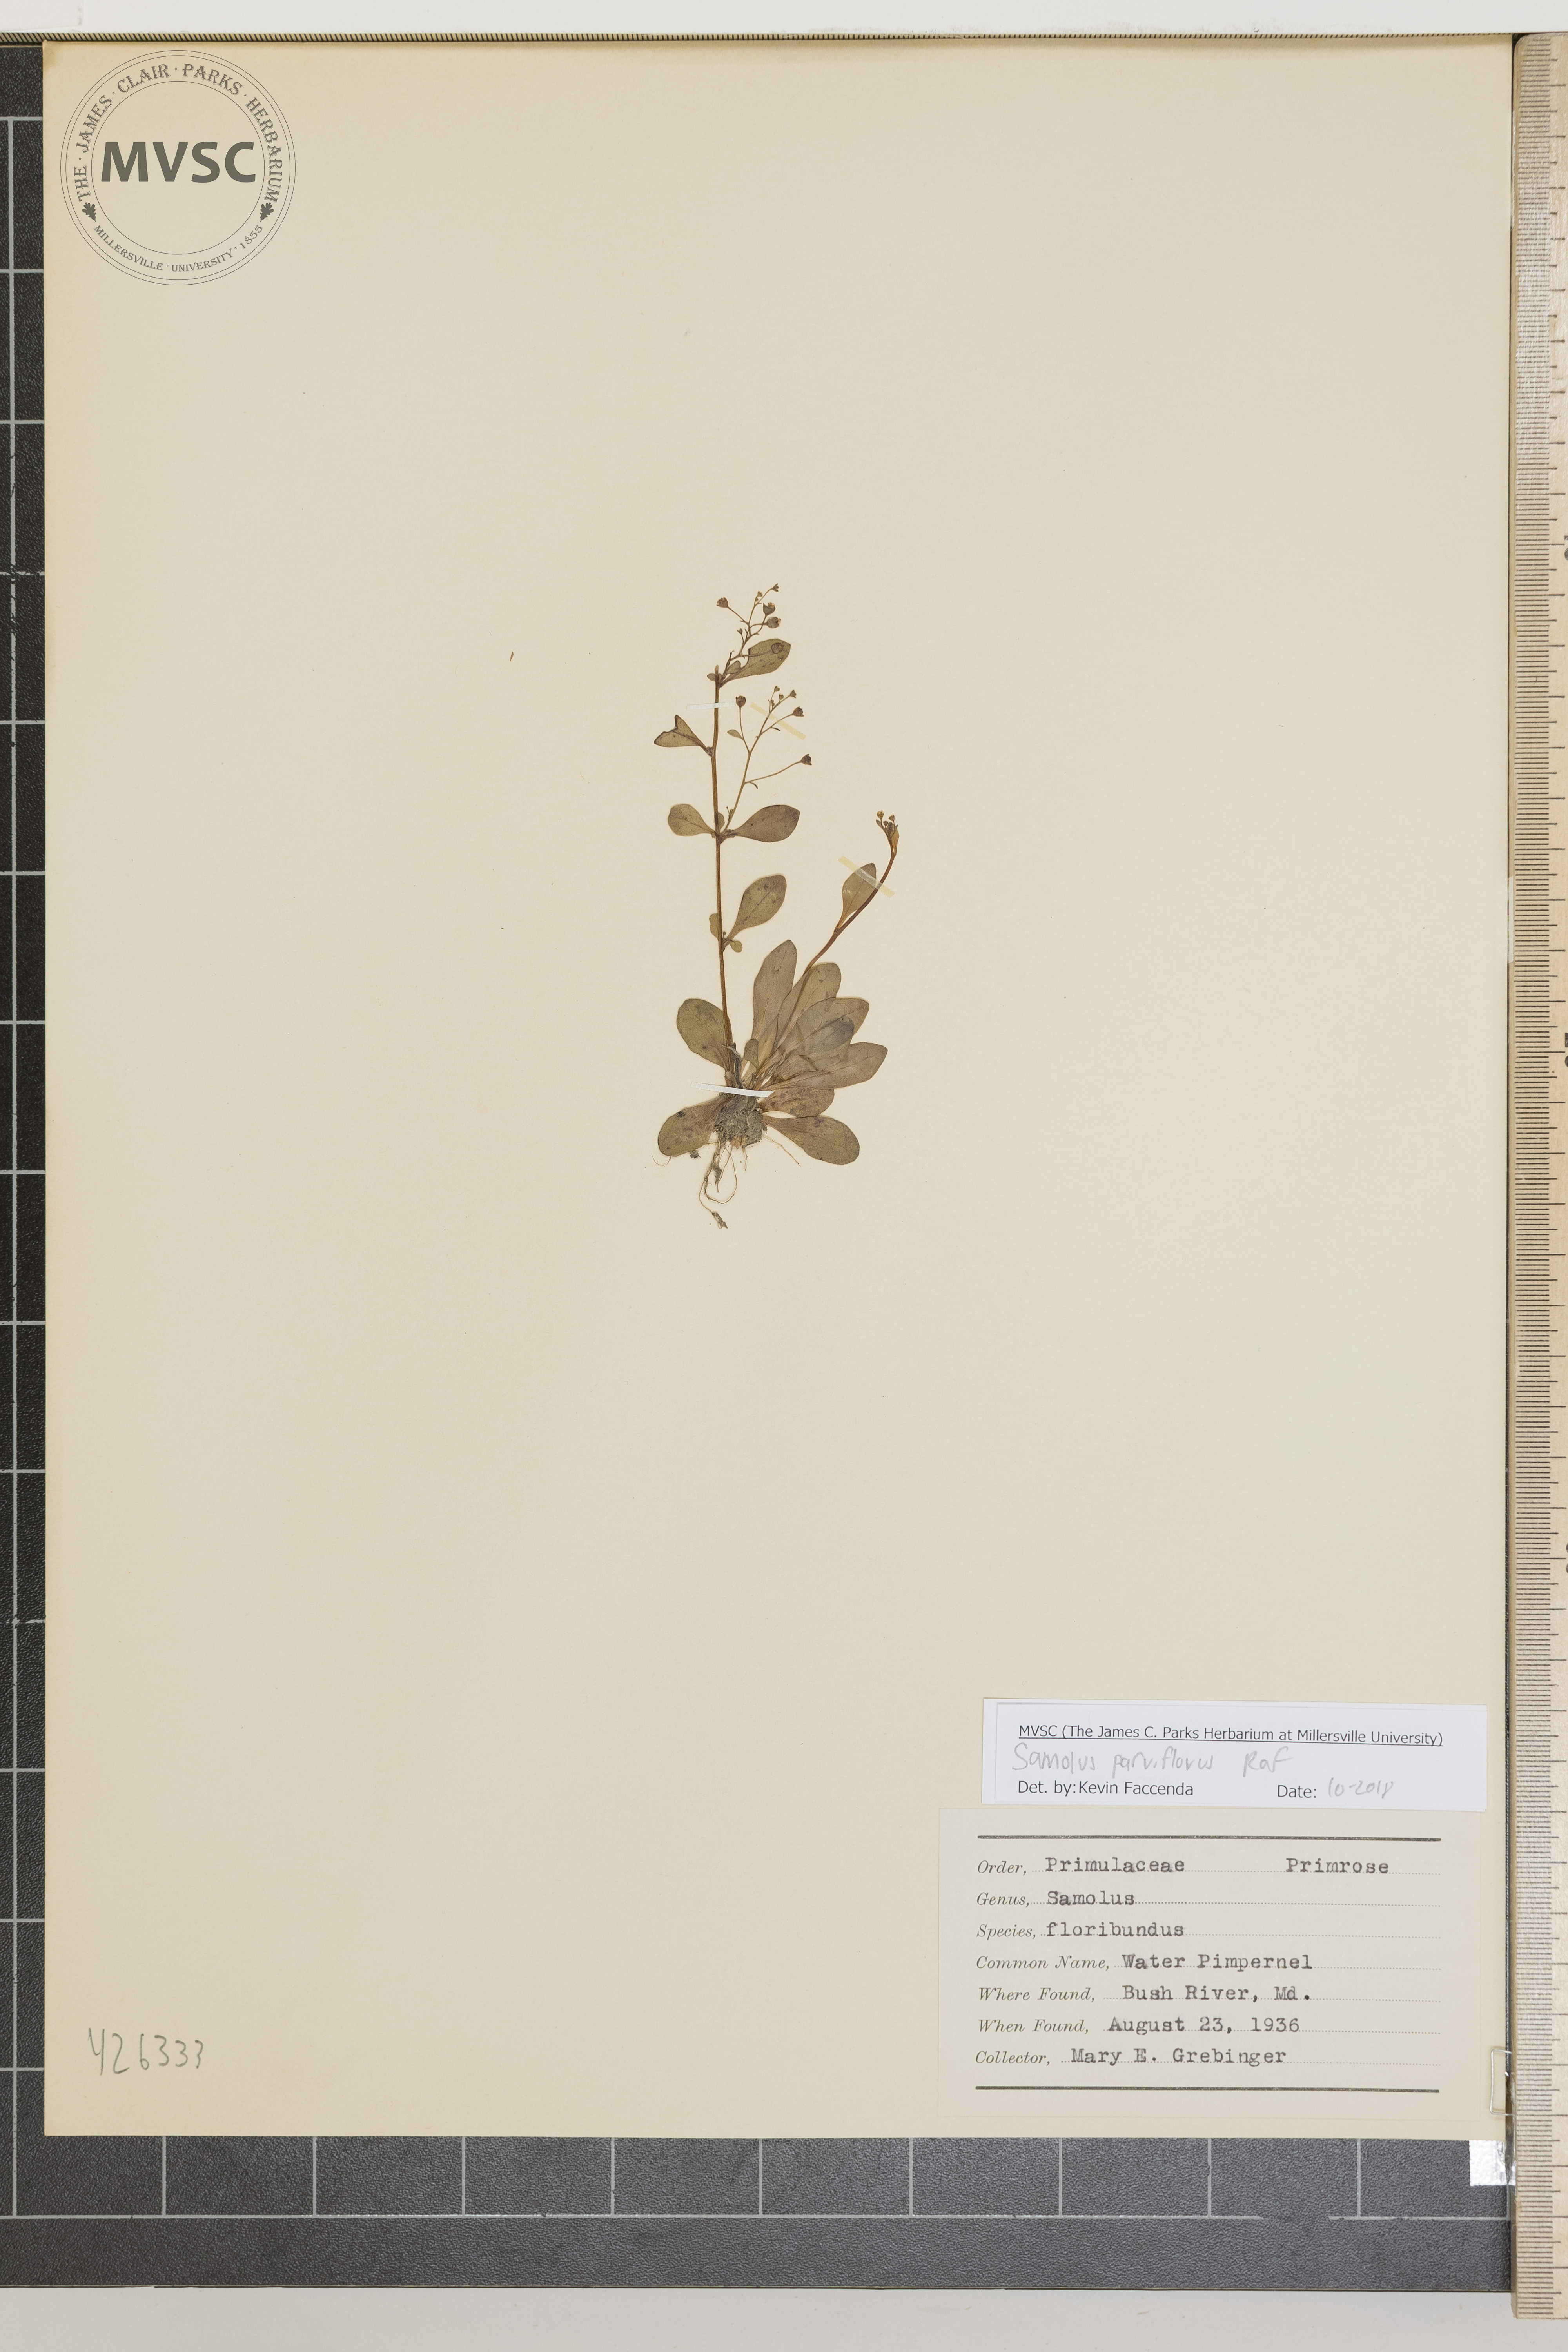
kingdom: Plantae
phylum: Tracheophyta
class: Magnoliopsida
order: Ericales
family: Primulaceae
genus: Samolus
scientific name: Samolus parviflorus
